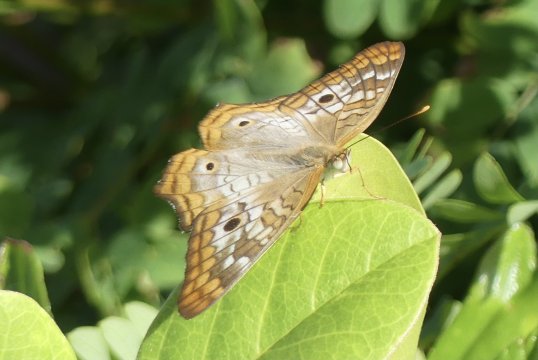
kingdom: Animalia
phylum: Arthropoda
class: Insecta
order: Lepidoptera
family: Nymphalidae
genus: Anartia
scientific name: Anartia jatrophae
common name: White Peacock
